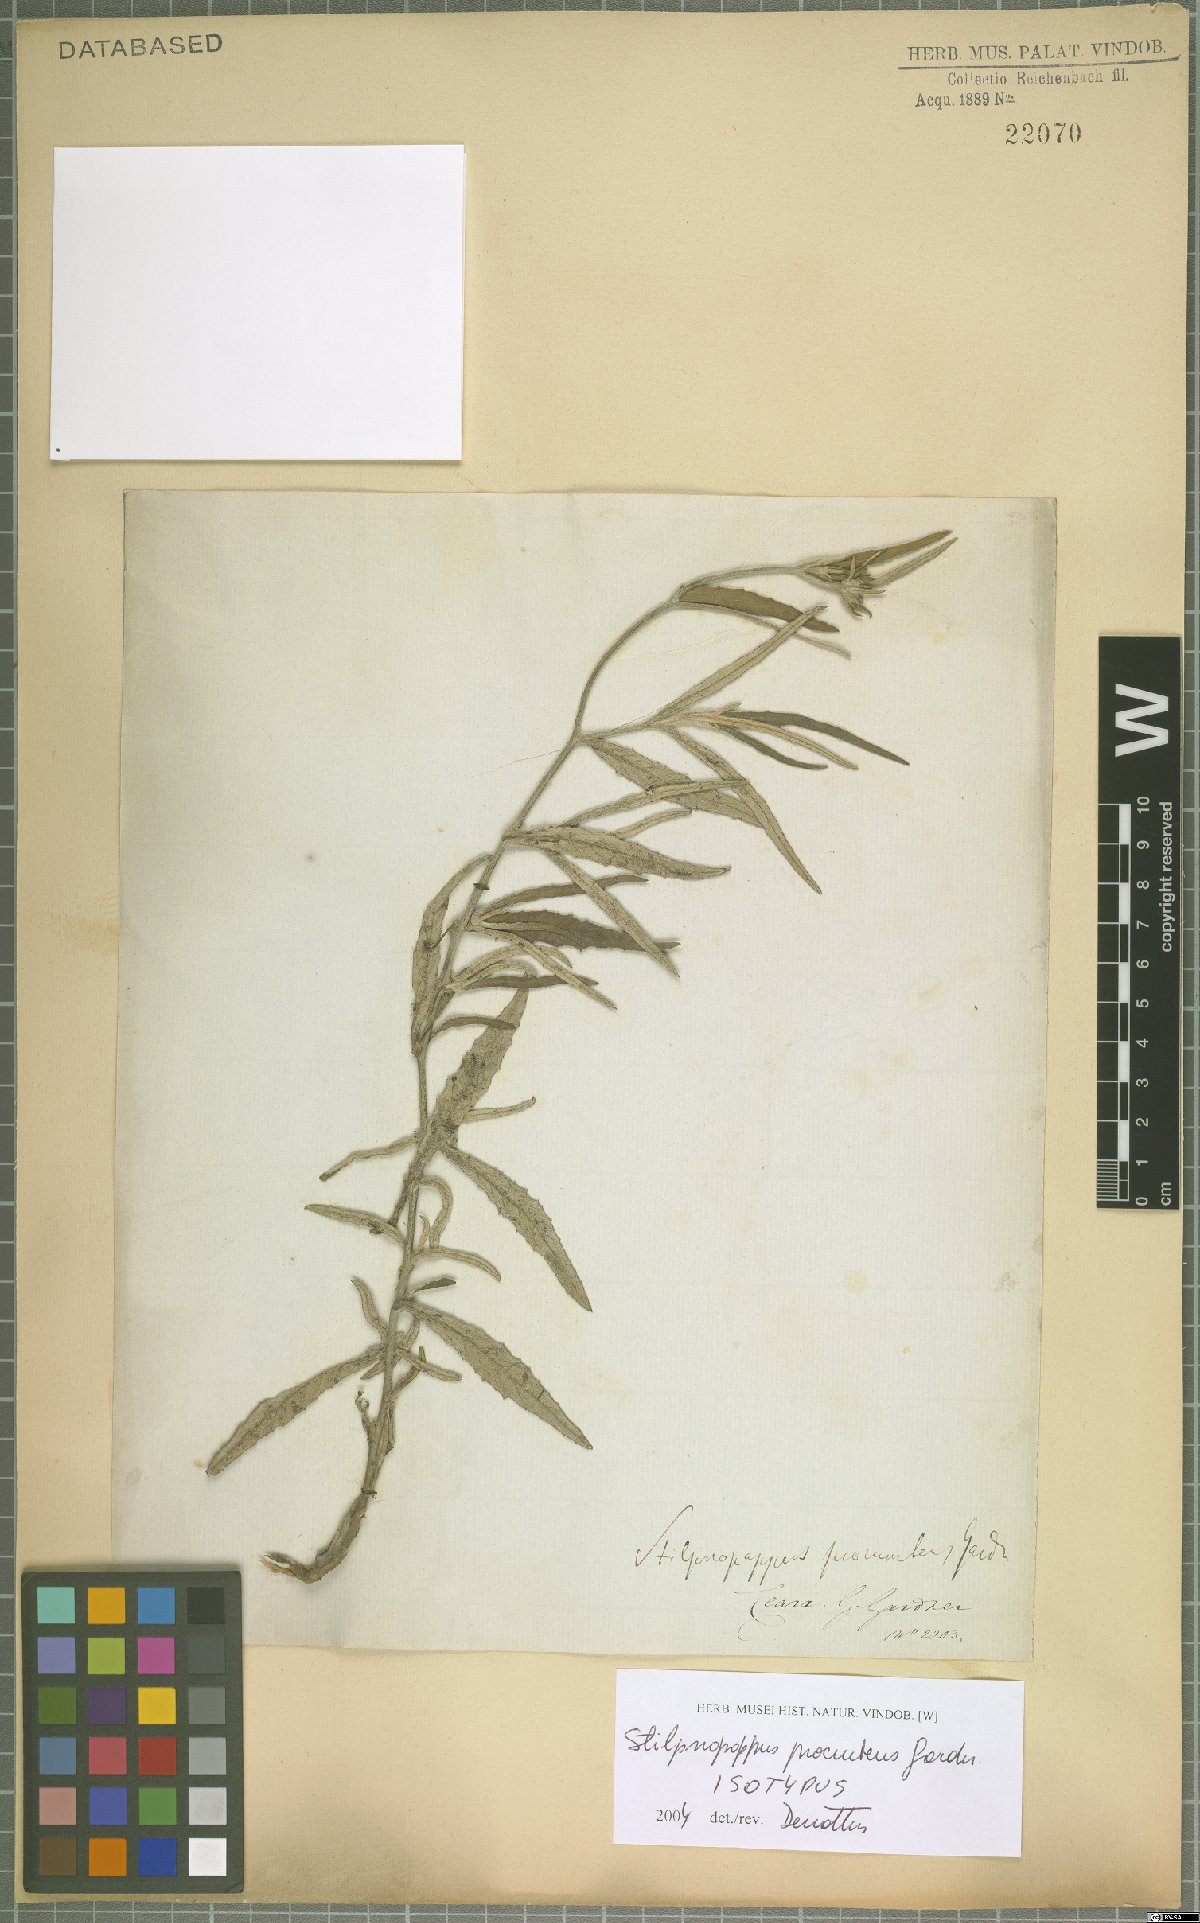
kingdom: Plantae
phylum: Tracheophyta
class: Magnoliopsida
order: Asterales
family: Asteraceae
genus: Stilpnopappus
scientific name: Stilpnopappus trichospiroides
